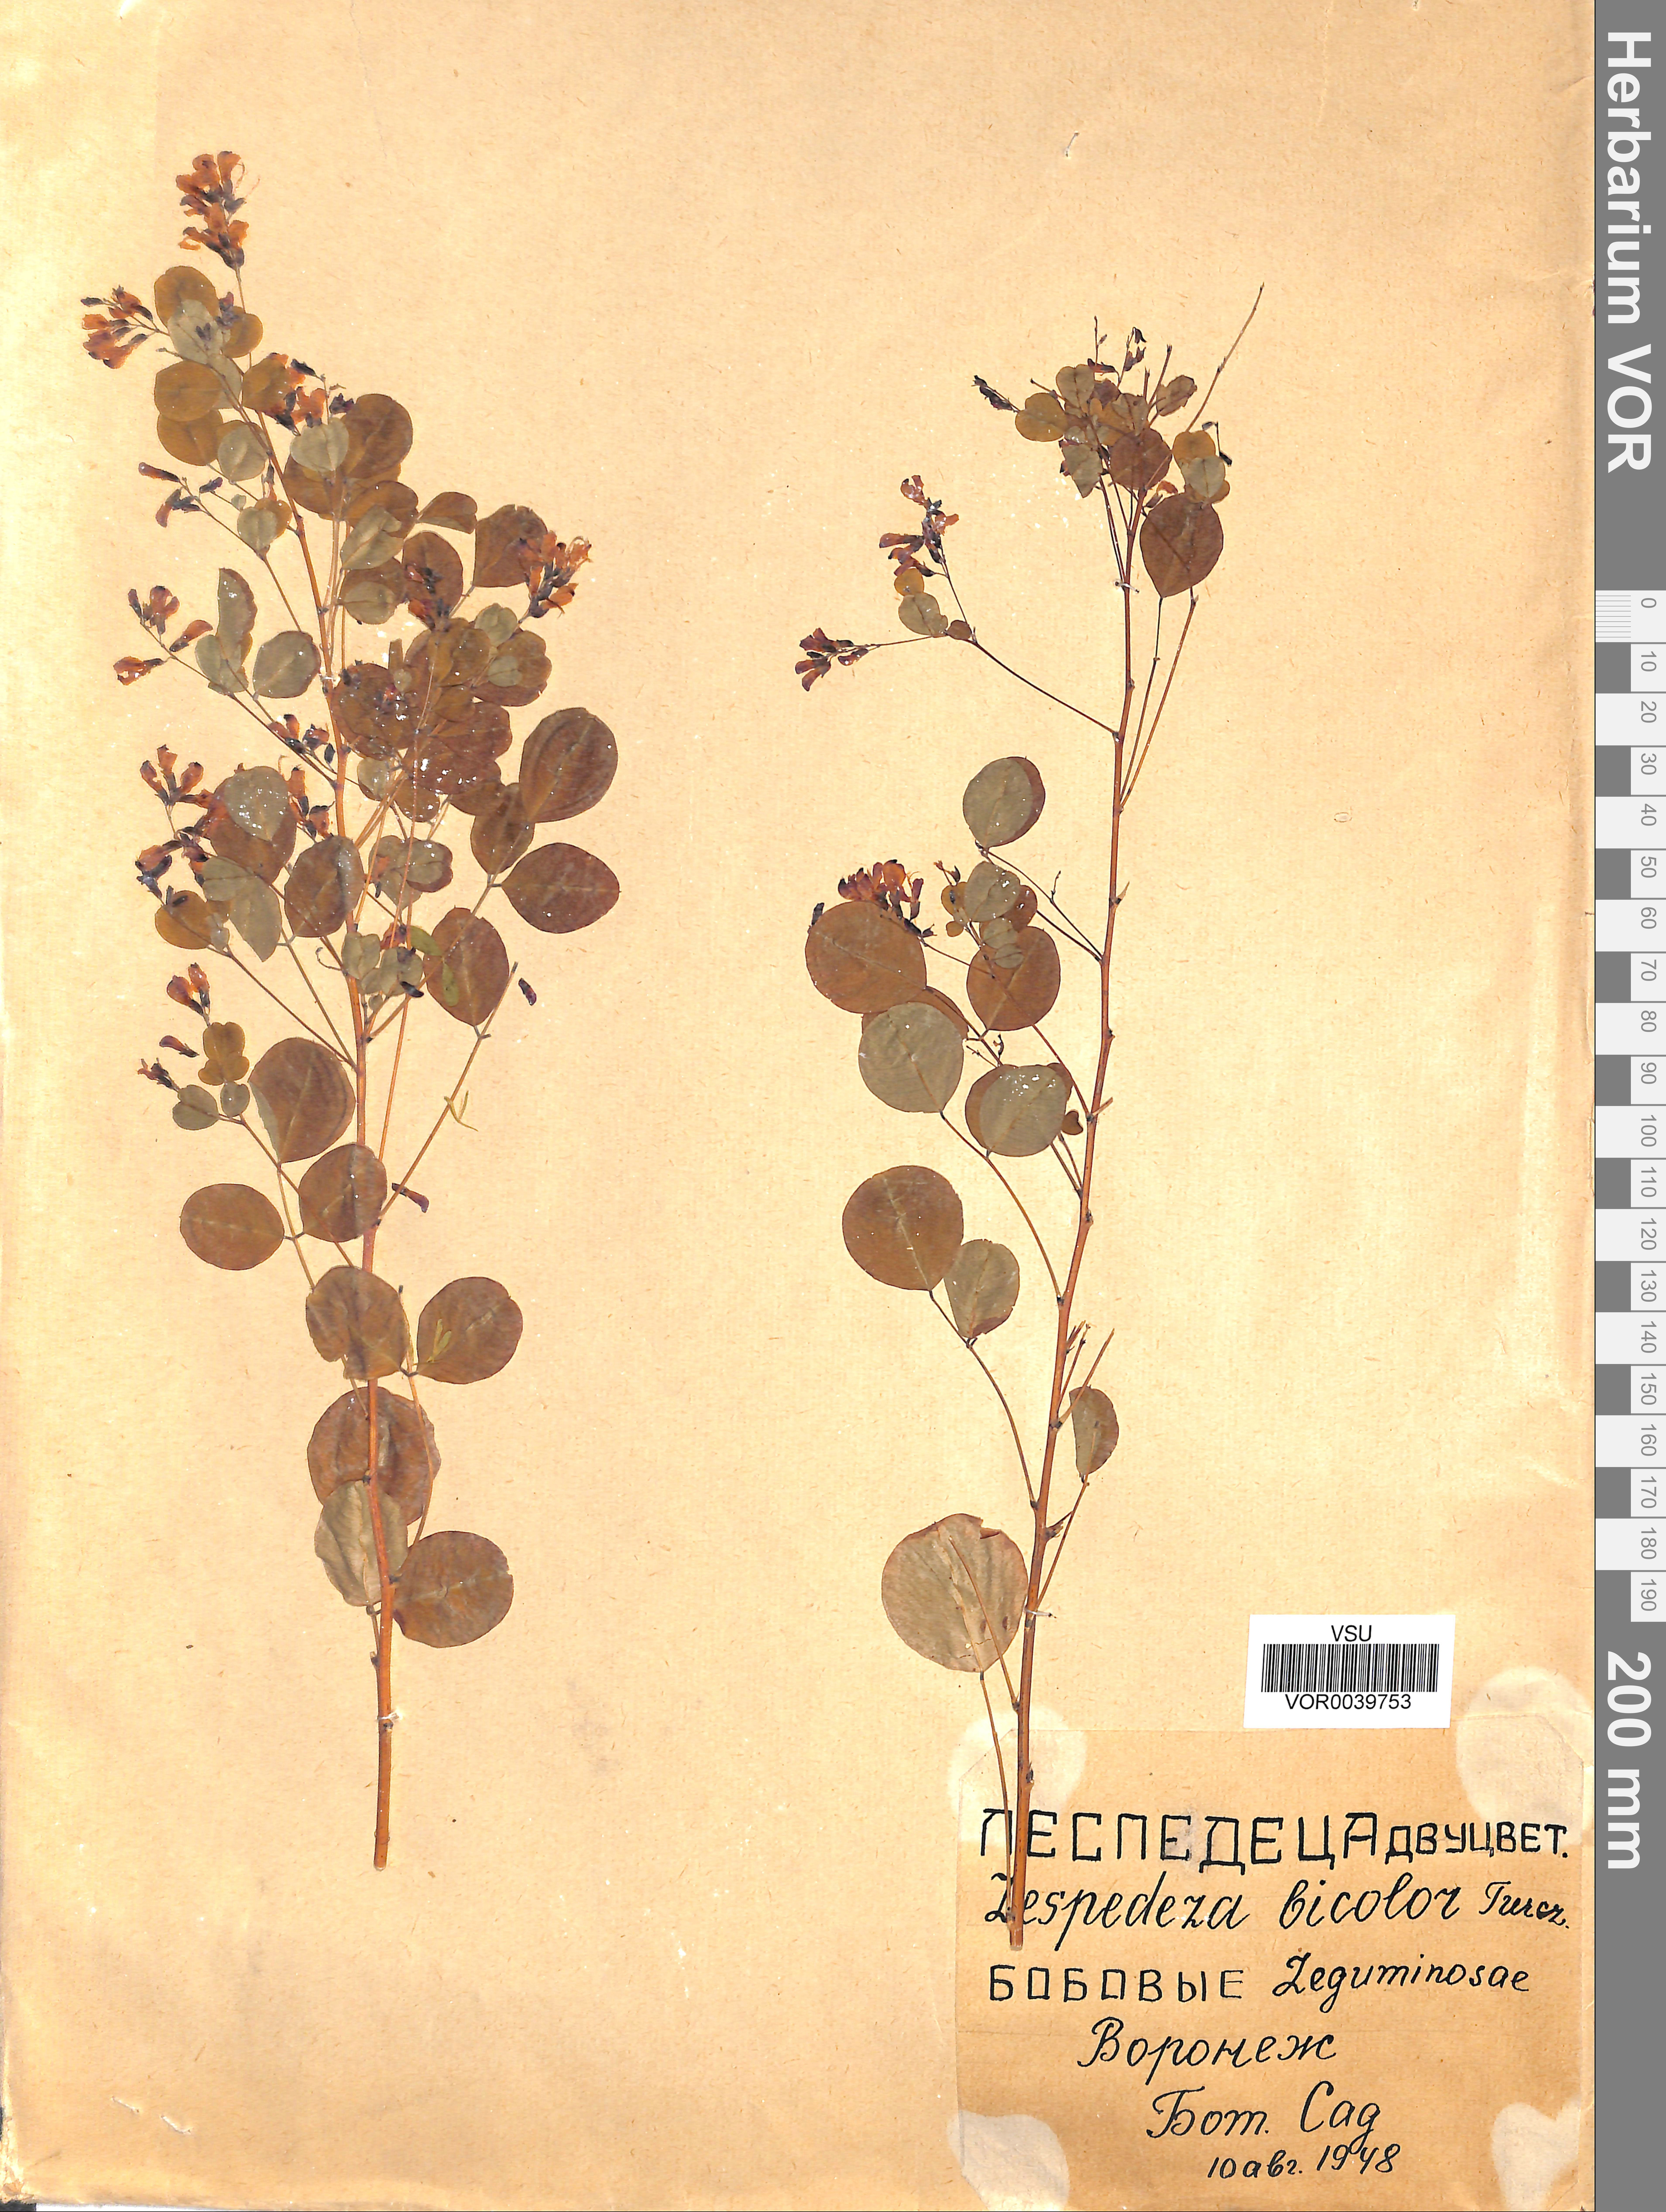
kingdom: Plantae
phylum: Tracheophyta
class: Magnoliopsida
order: Fabales
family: Fabaceae
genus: Lespedeza
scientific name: Lespedeza bicolor
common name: Shrub lespedeza
